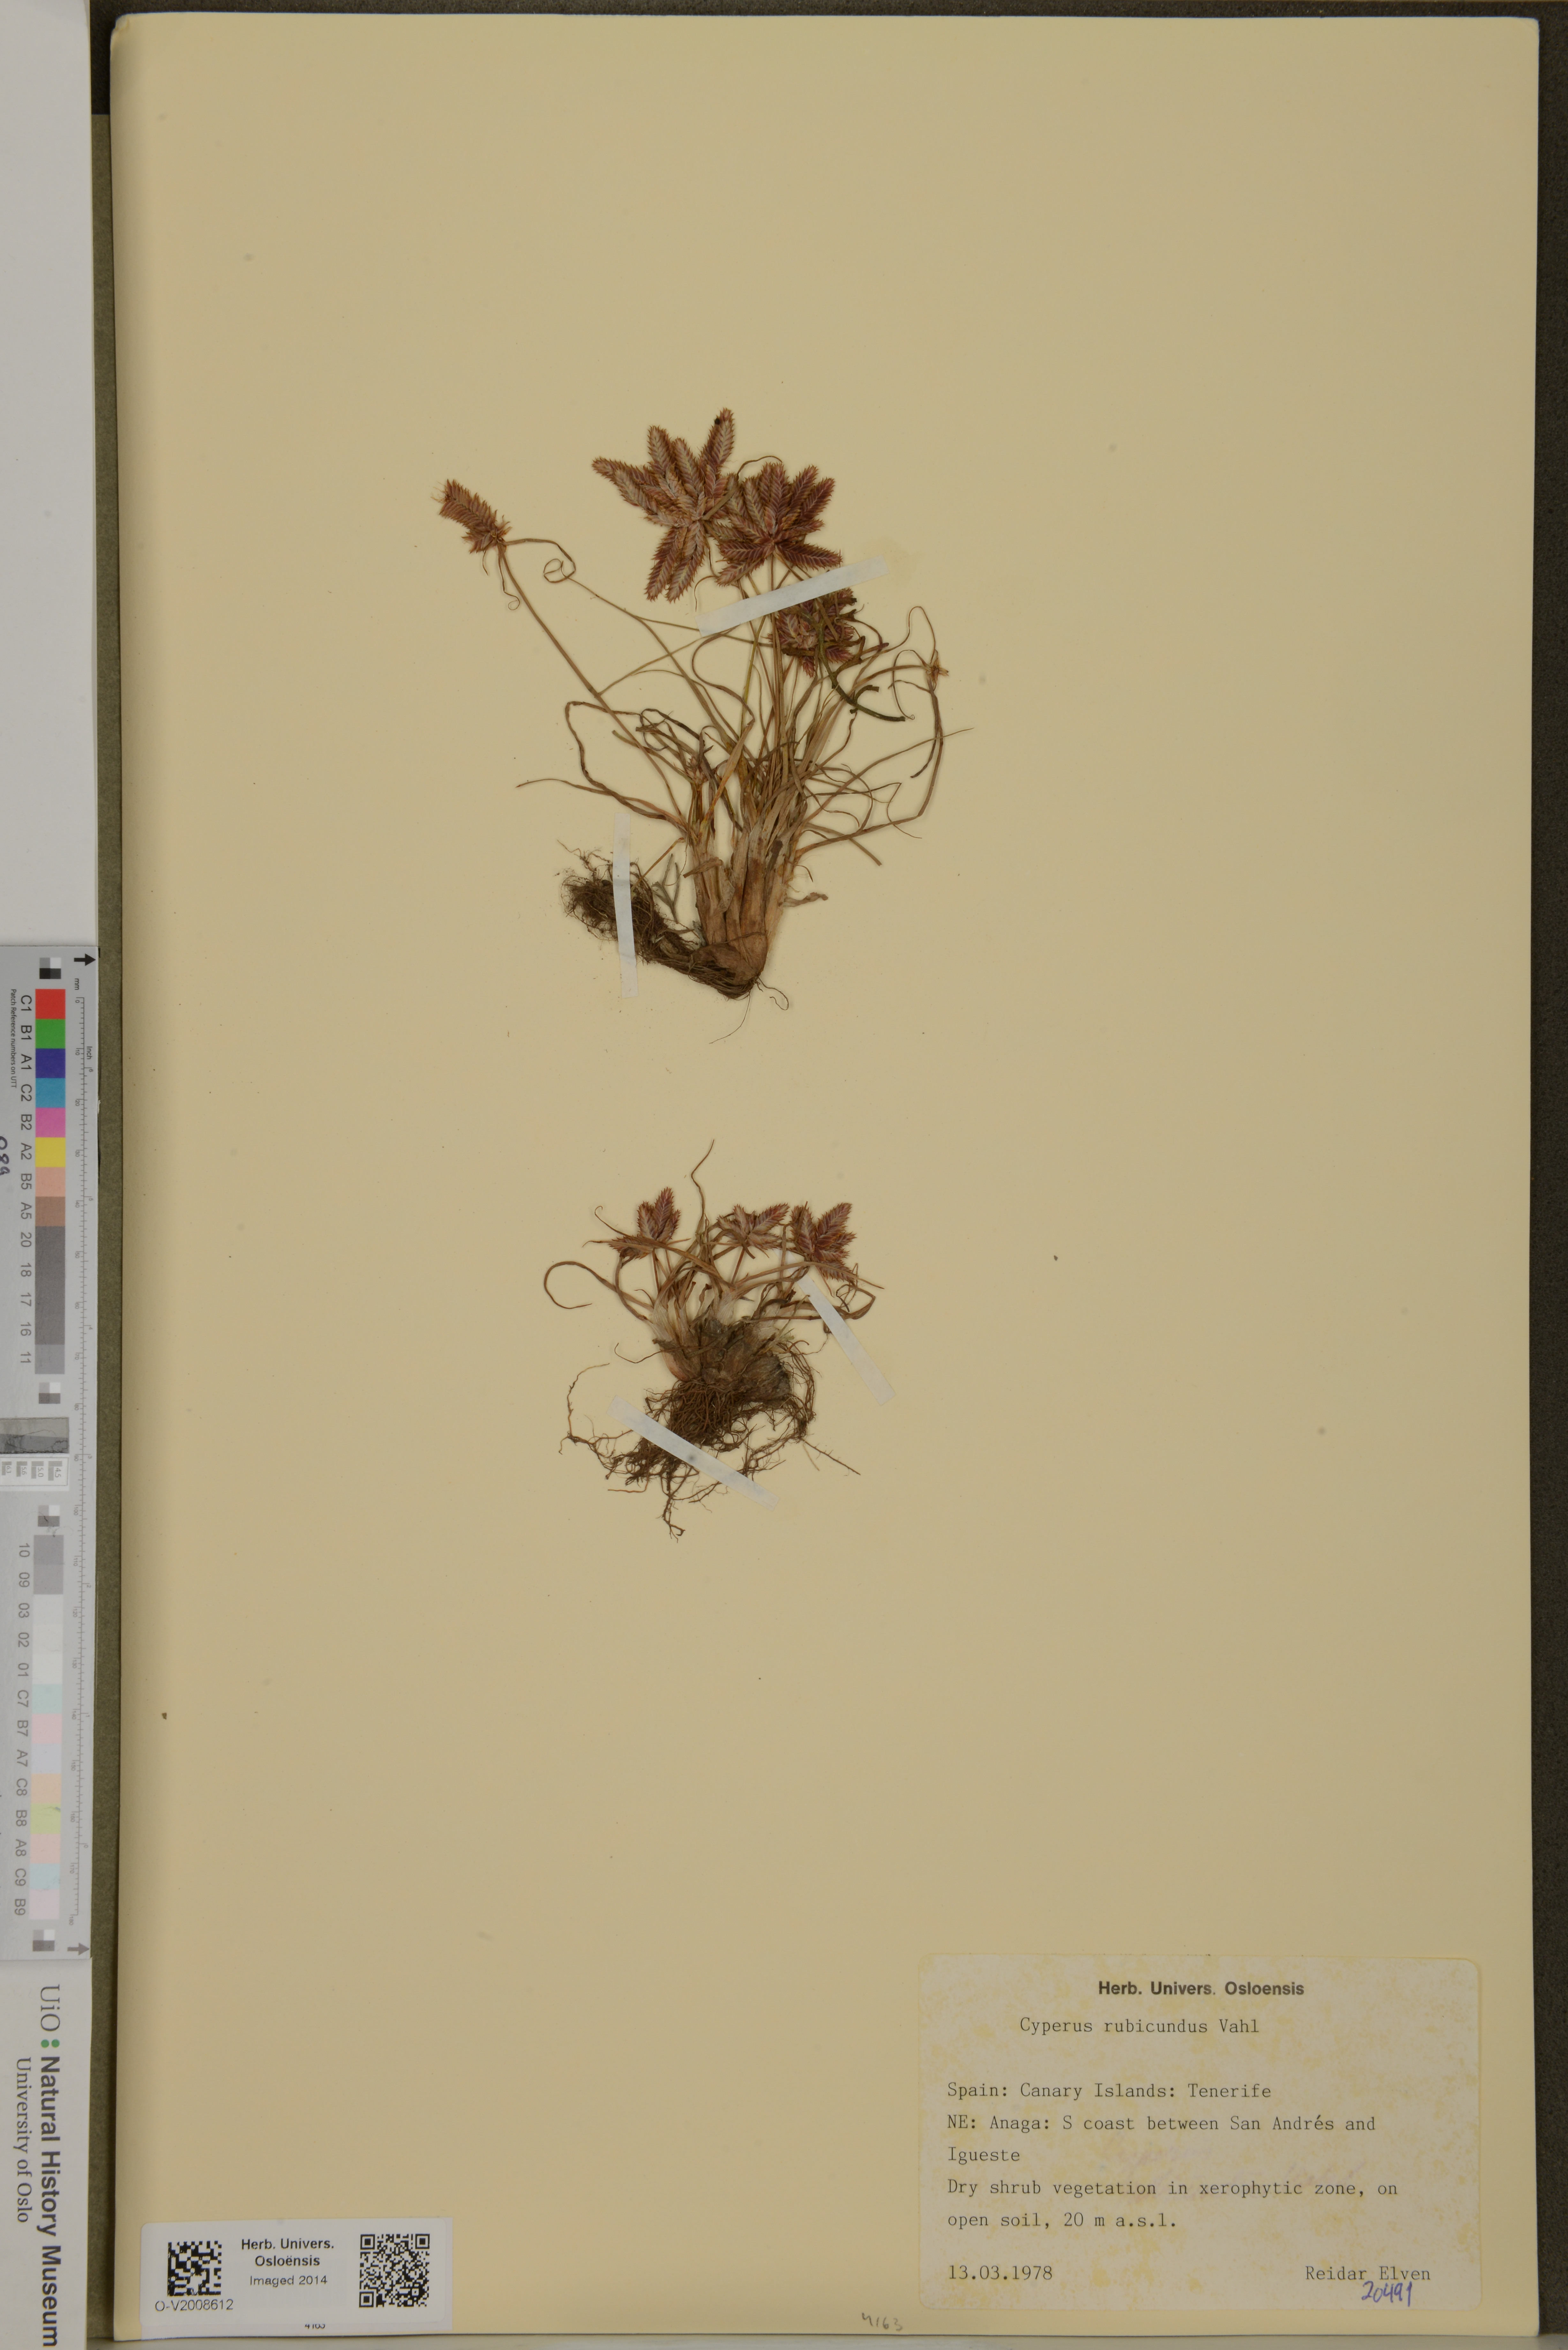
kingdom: Plantae
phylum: Tracheophyta
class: Liliopsida
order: Poales
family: Cyperaceae
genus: Cyperus
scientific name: Cyperus rubicundus
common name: Coco-grass
